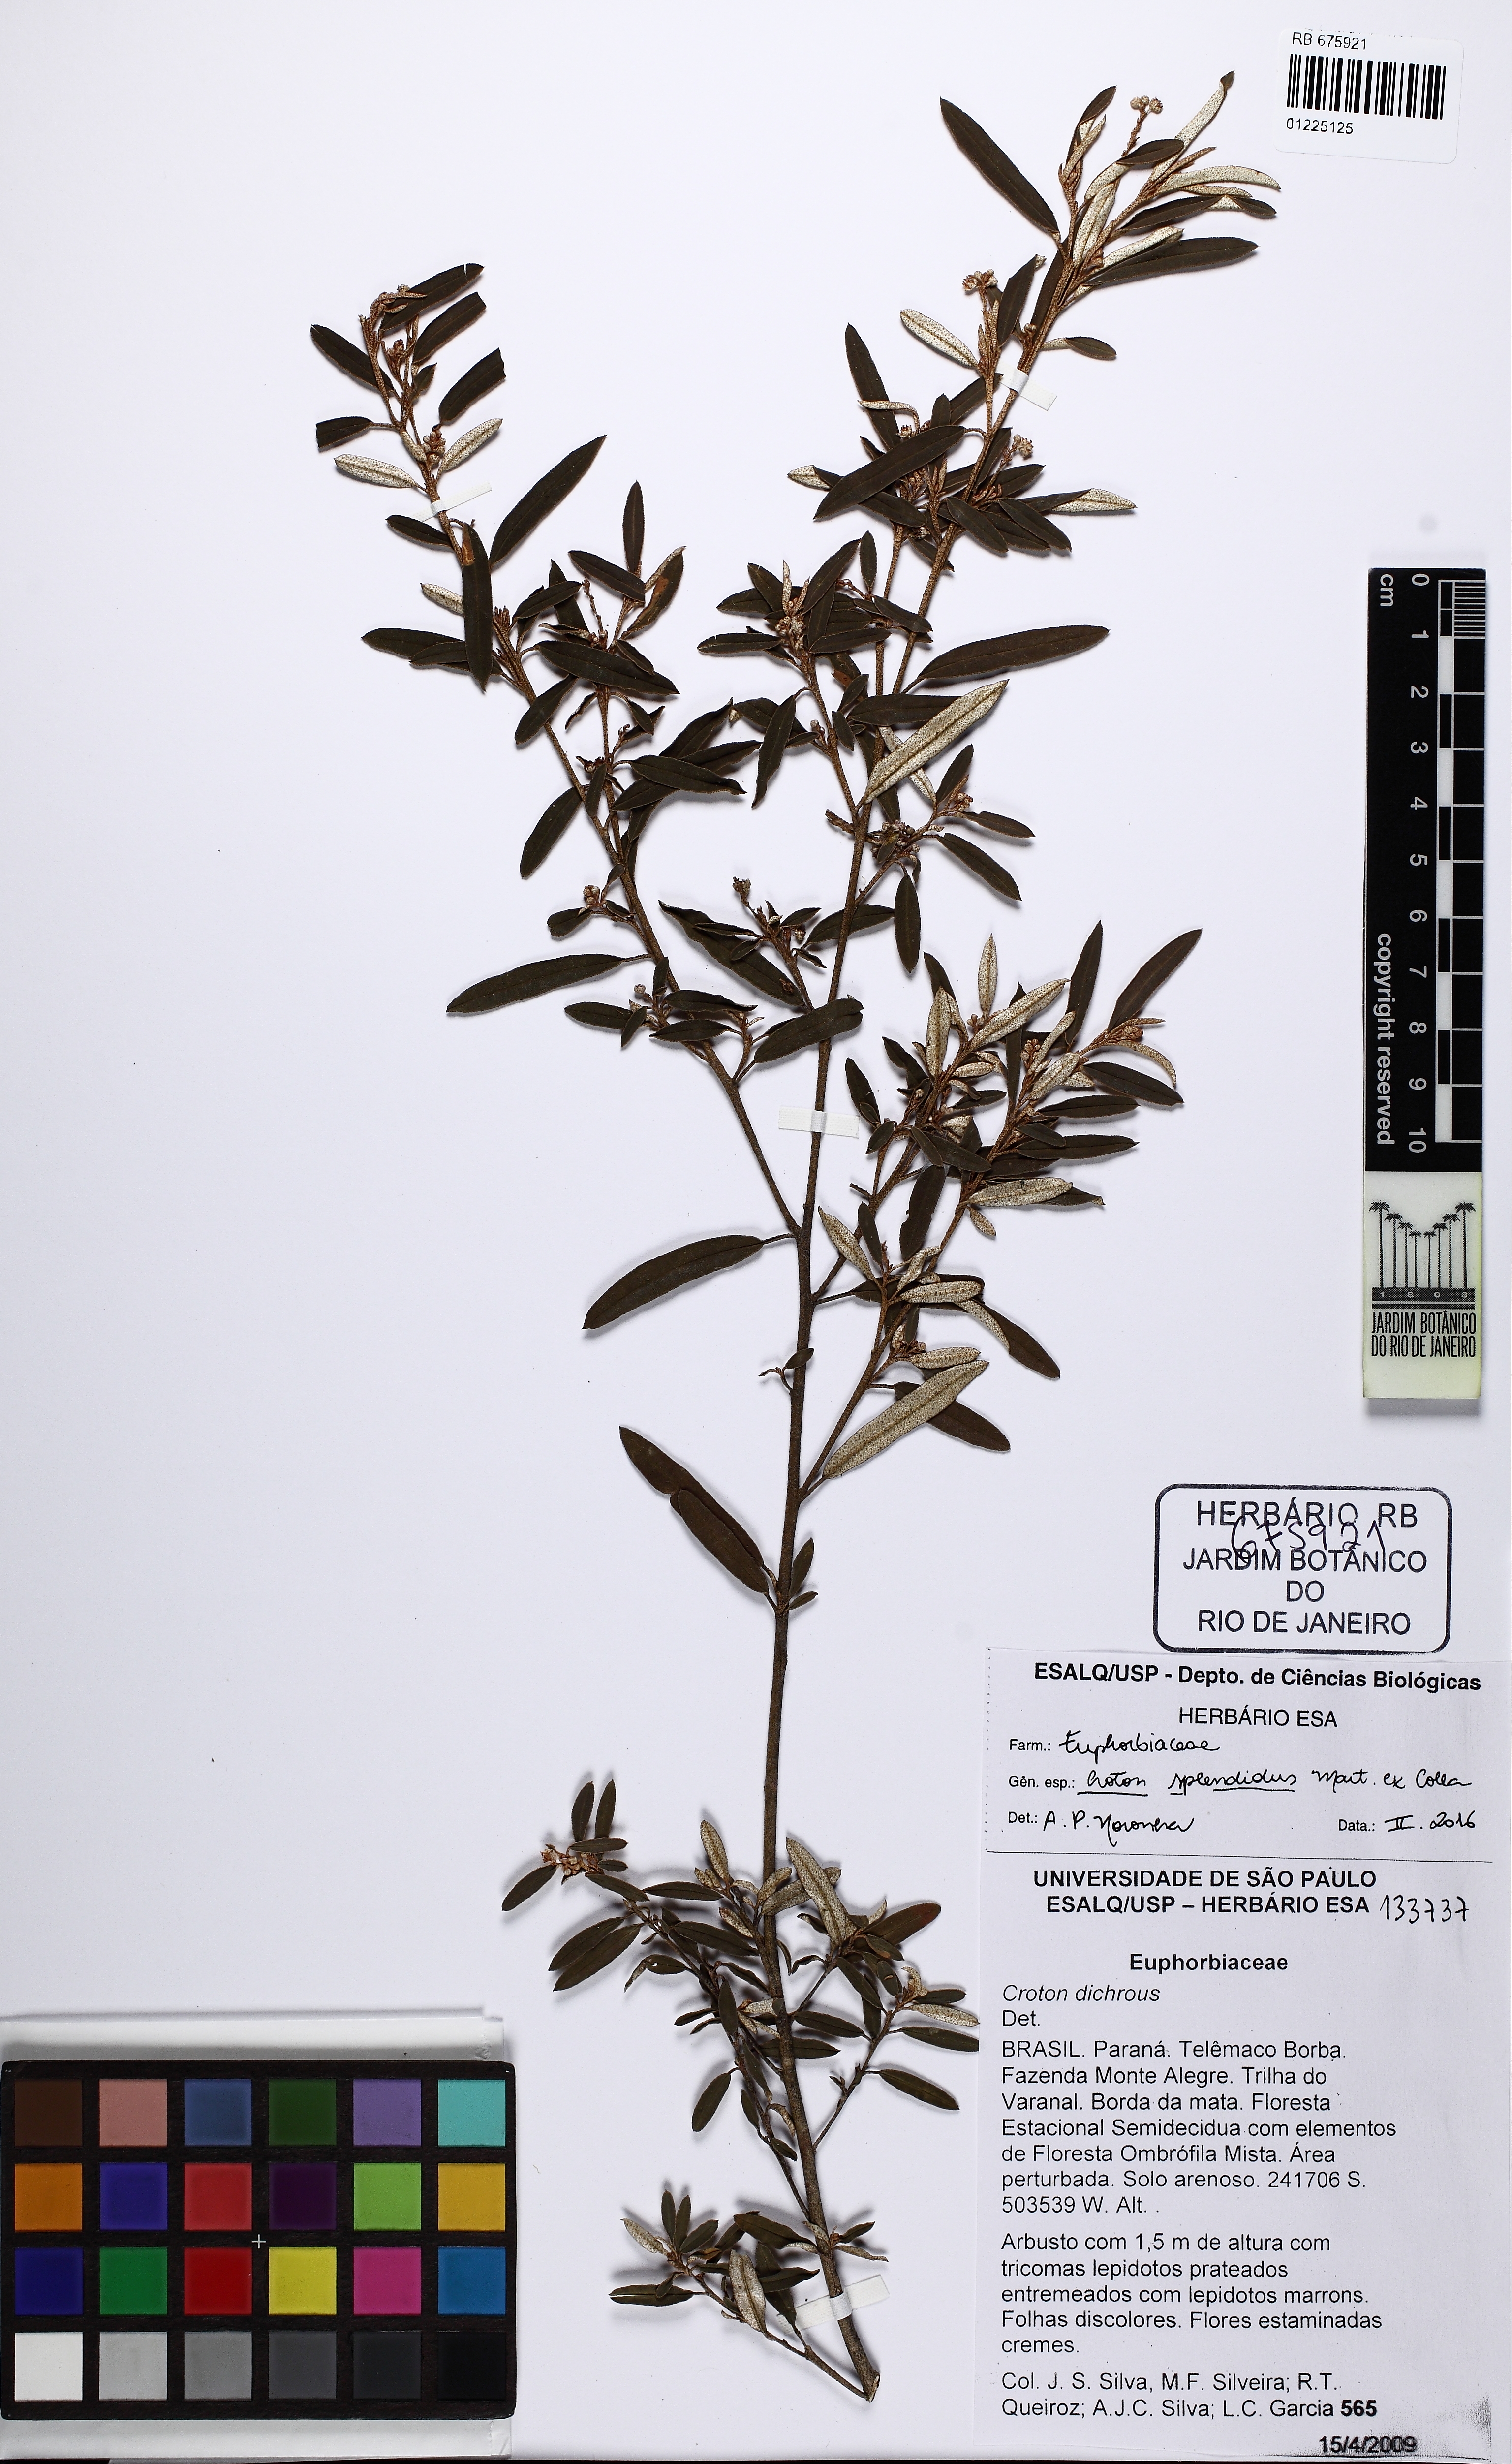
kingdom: Plantae
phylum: Tracheophyta
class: Magnoliopsida
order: Malpighiales
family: Euphorbiaceae
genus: Croton
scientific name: Croton splendidus
